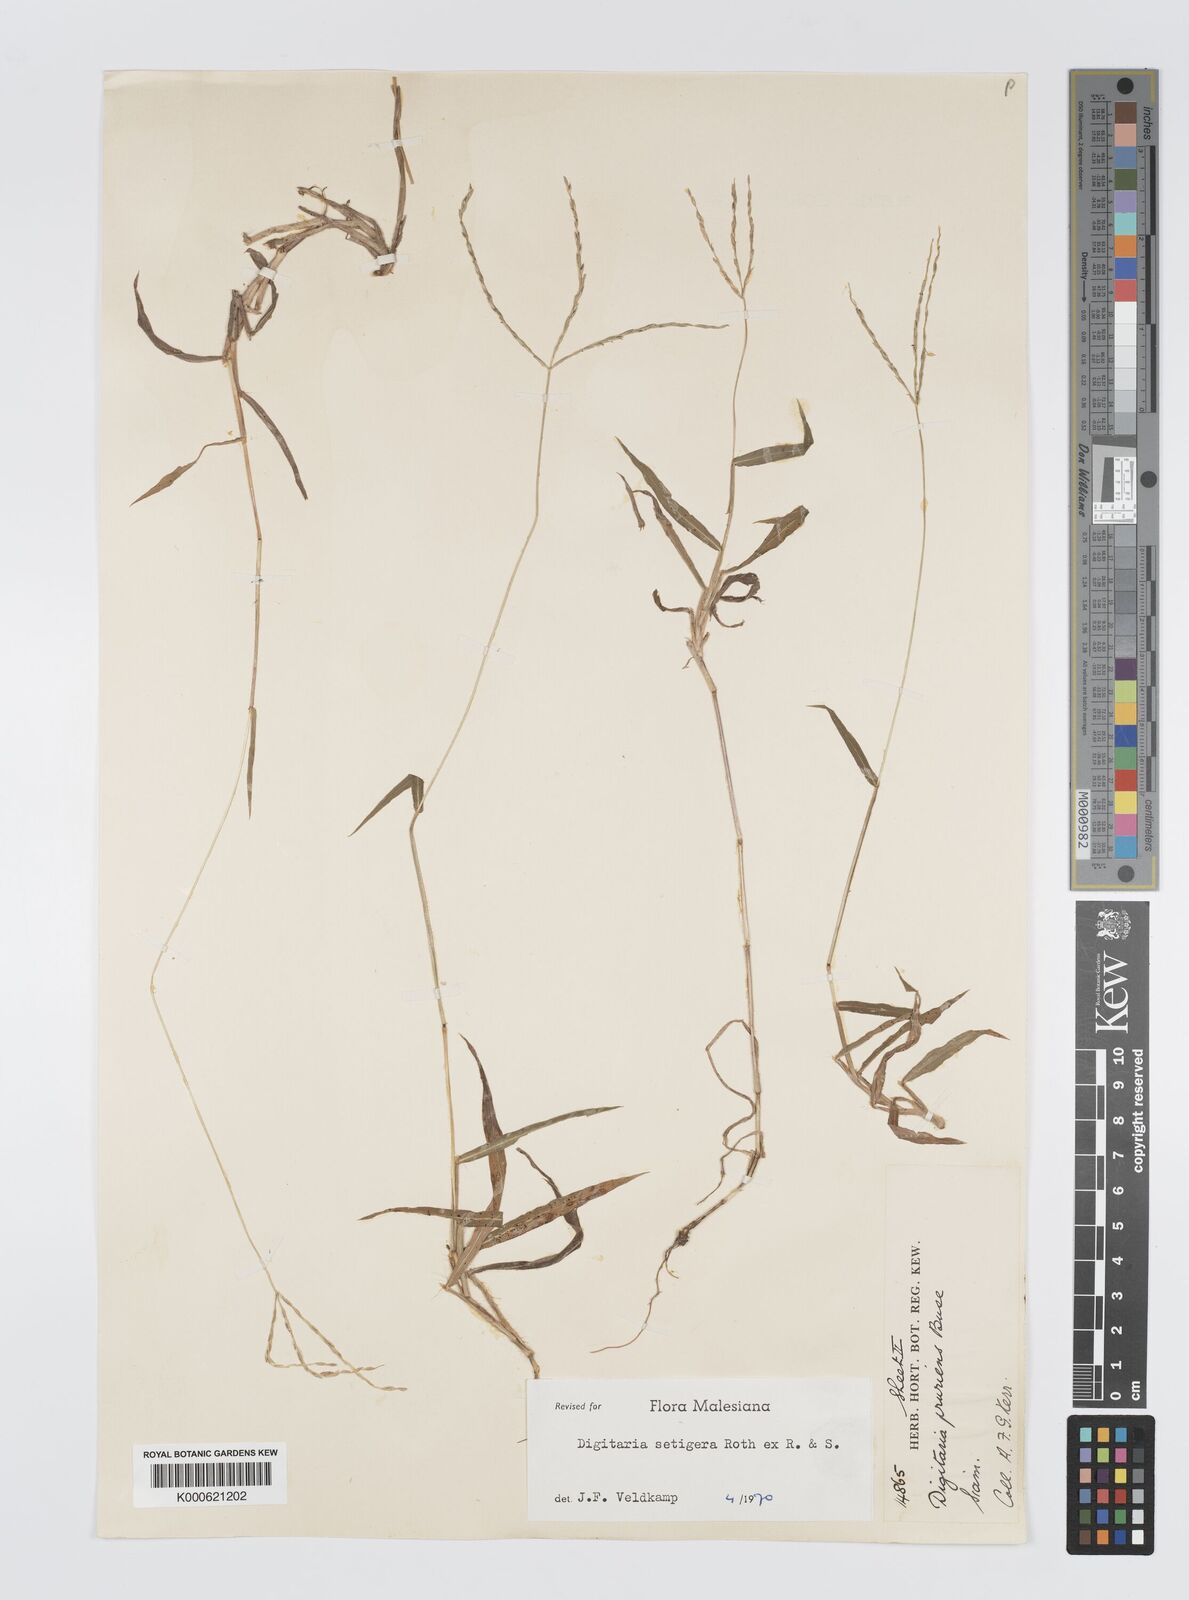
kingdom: Plantae
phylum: Tracheophyta
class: Liliopsida
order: Poales
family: Poaceae
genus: Digitaria
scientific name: Digitaria
